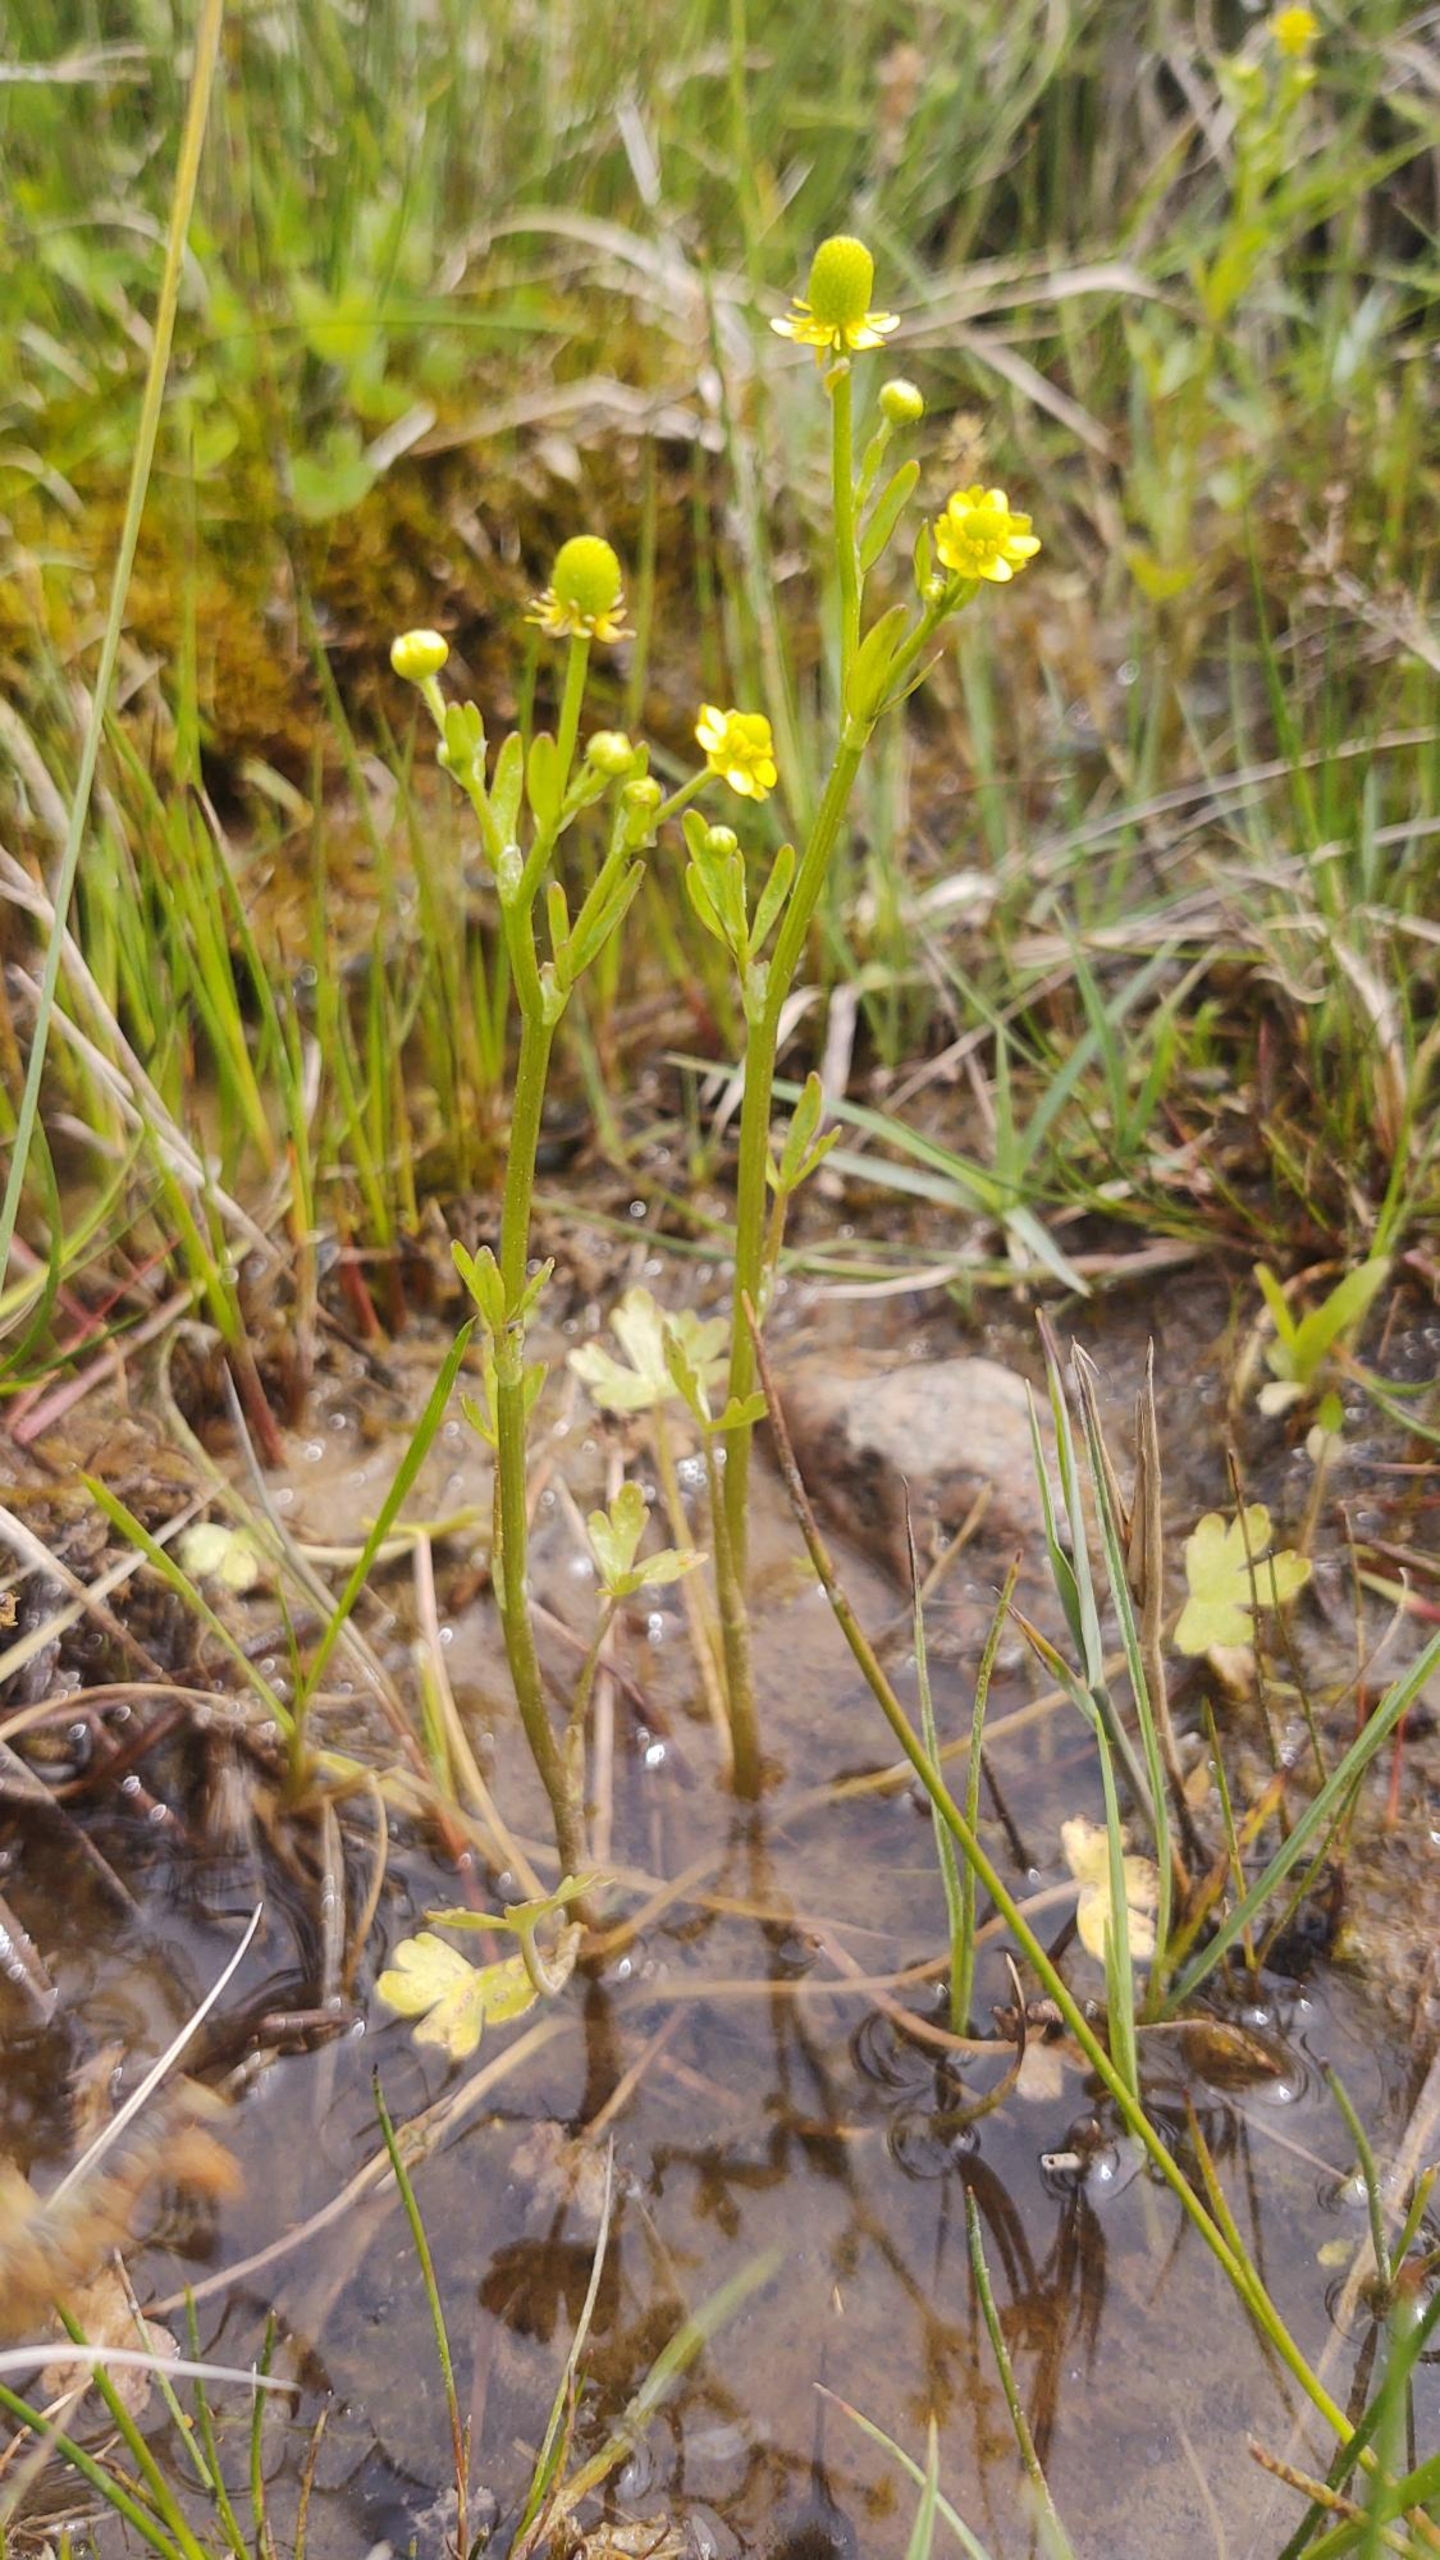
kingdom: Plantae
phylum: Tracheophyta
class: Magnoliopsida
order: Ranunculales
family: Ranunculaceae
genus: Ranunculus
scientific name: Ranunculus sceleratus
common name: Tigger-ranunkel
